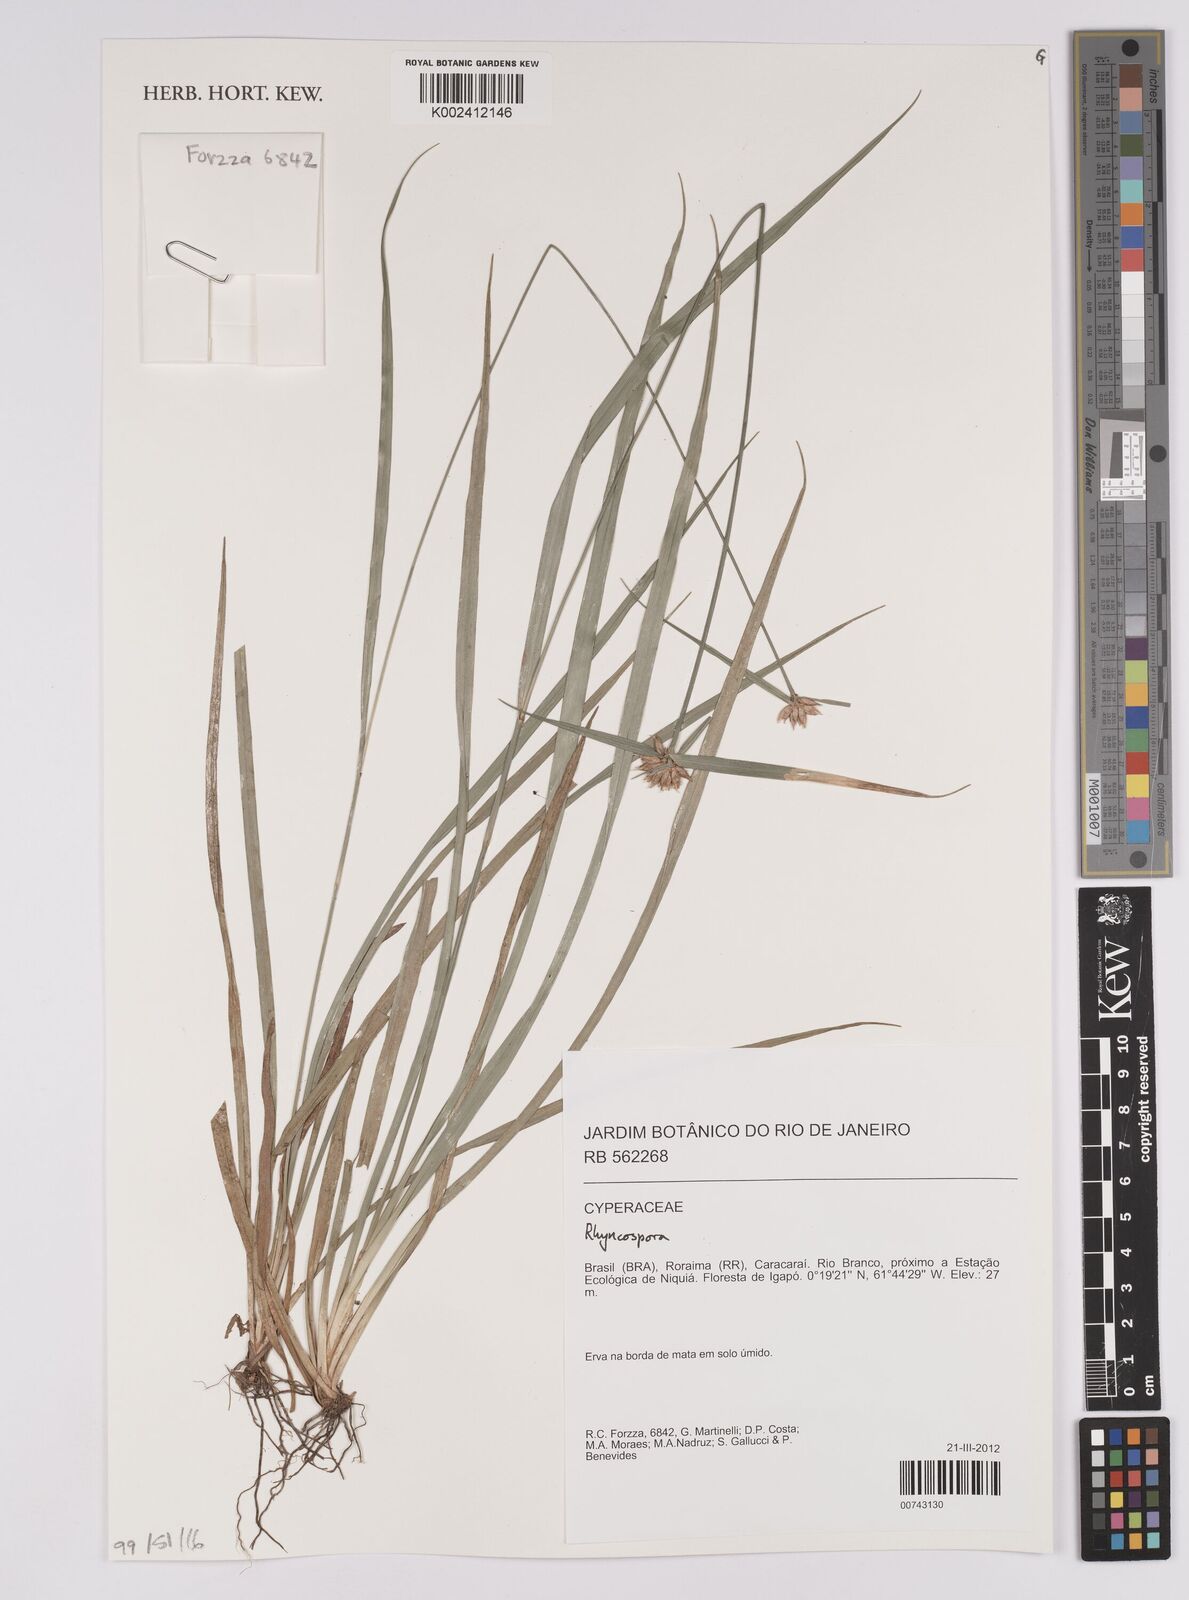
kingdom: Plantae
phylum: Tracheophyta
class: Liliopsida
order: Poales
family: Cyperaceae
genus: Rhynchospora
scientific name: Rhynchospora
